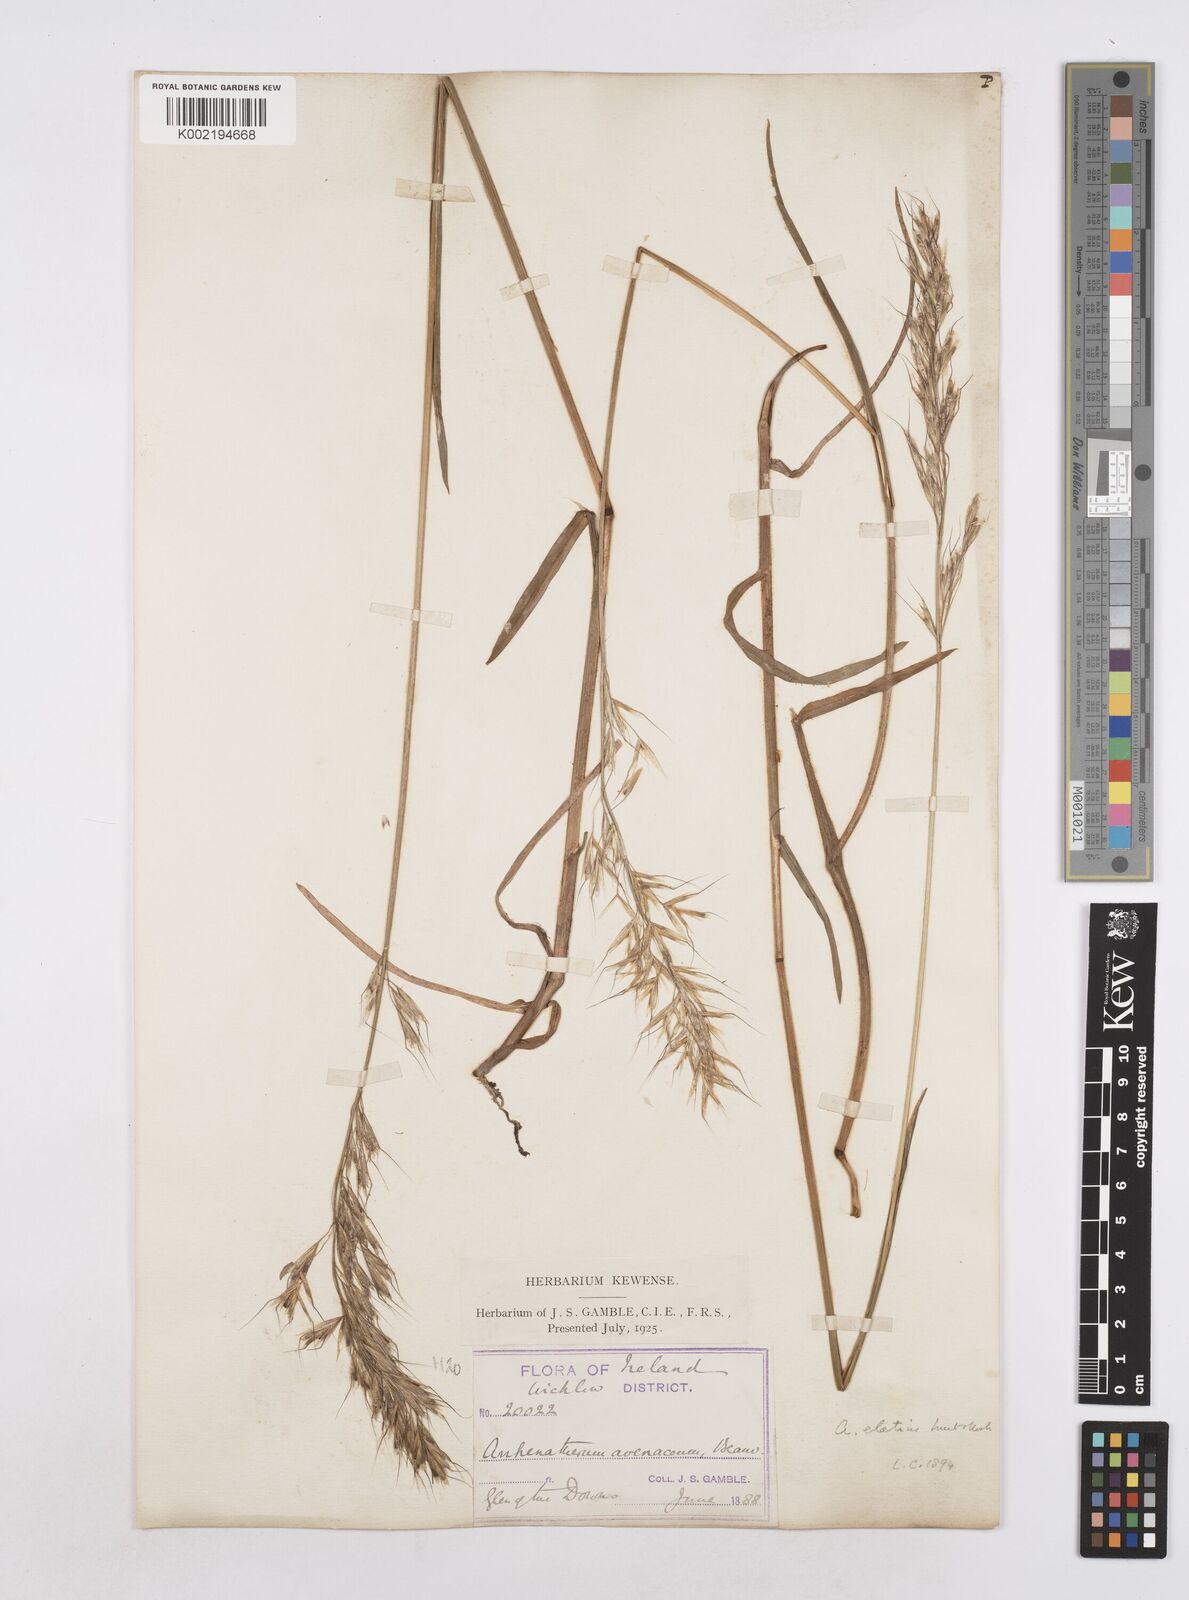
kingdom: Plantae
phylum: Tracheophyta
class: Liliopsida
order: Poales
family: Poaceae
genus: Avenula
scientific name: Avenula pubescens
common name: Downy alpine oatgrass
